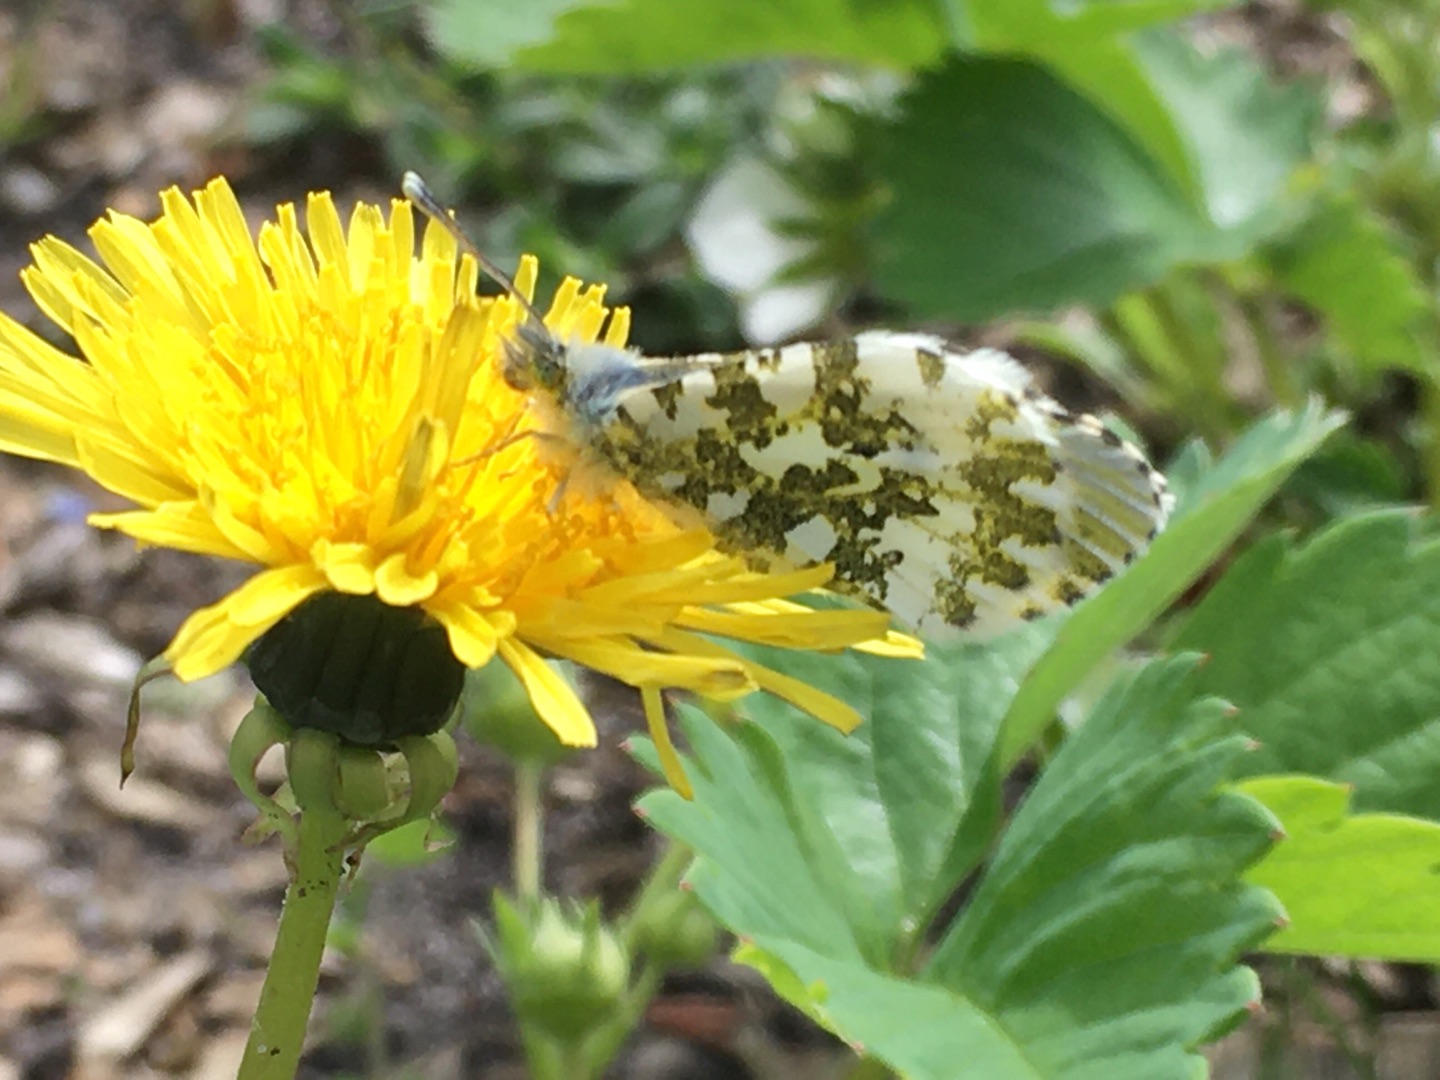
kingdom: Animalia
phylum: Arthropoda
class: Insecta
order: Lepidoptera
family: Pieridae
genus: Anthocharis
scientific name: Anthocharis cardamines
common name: Aurora
